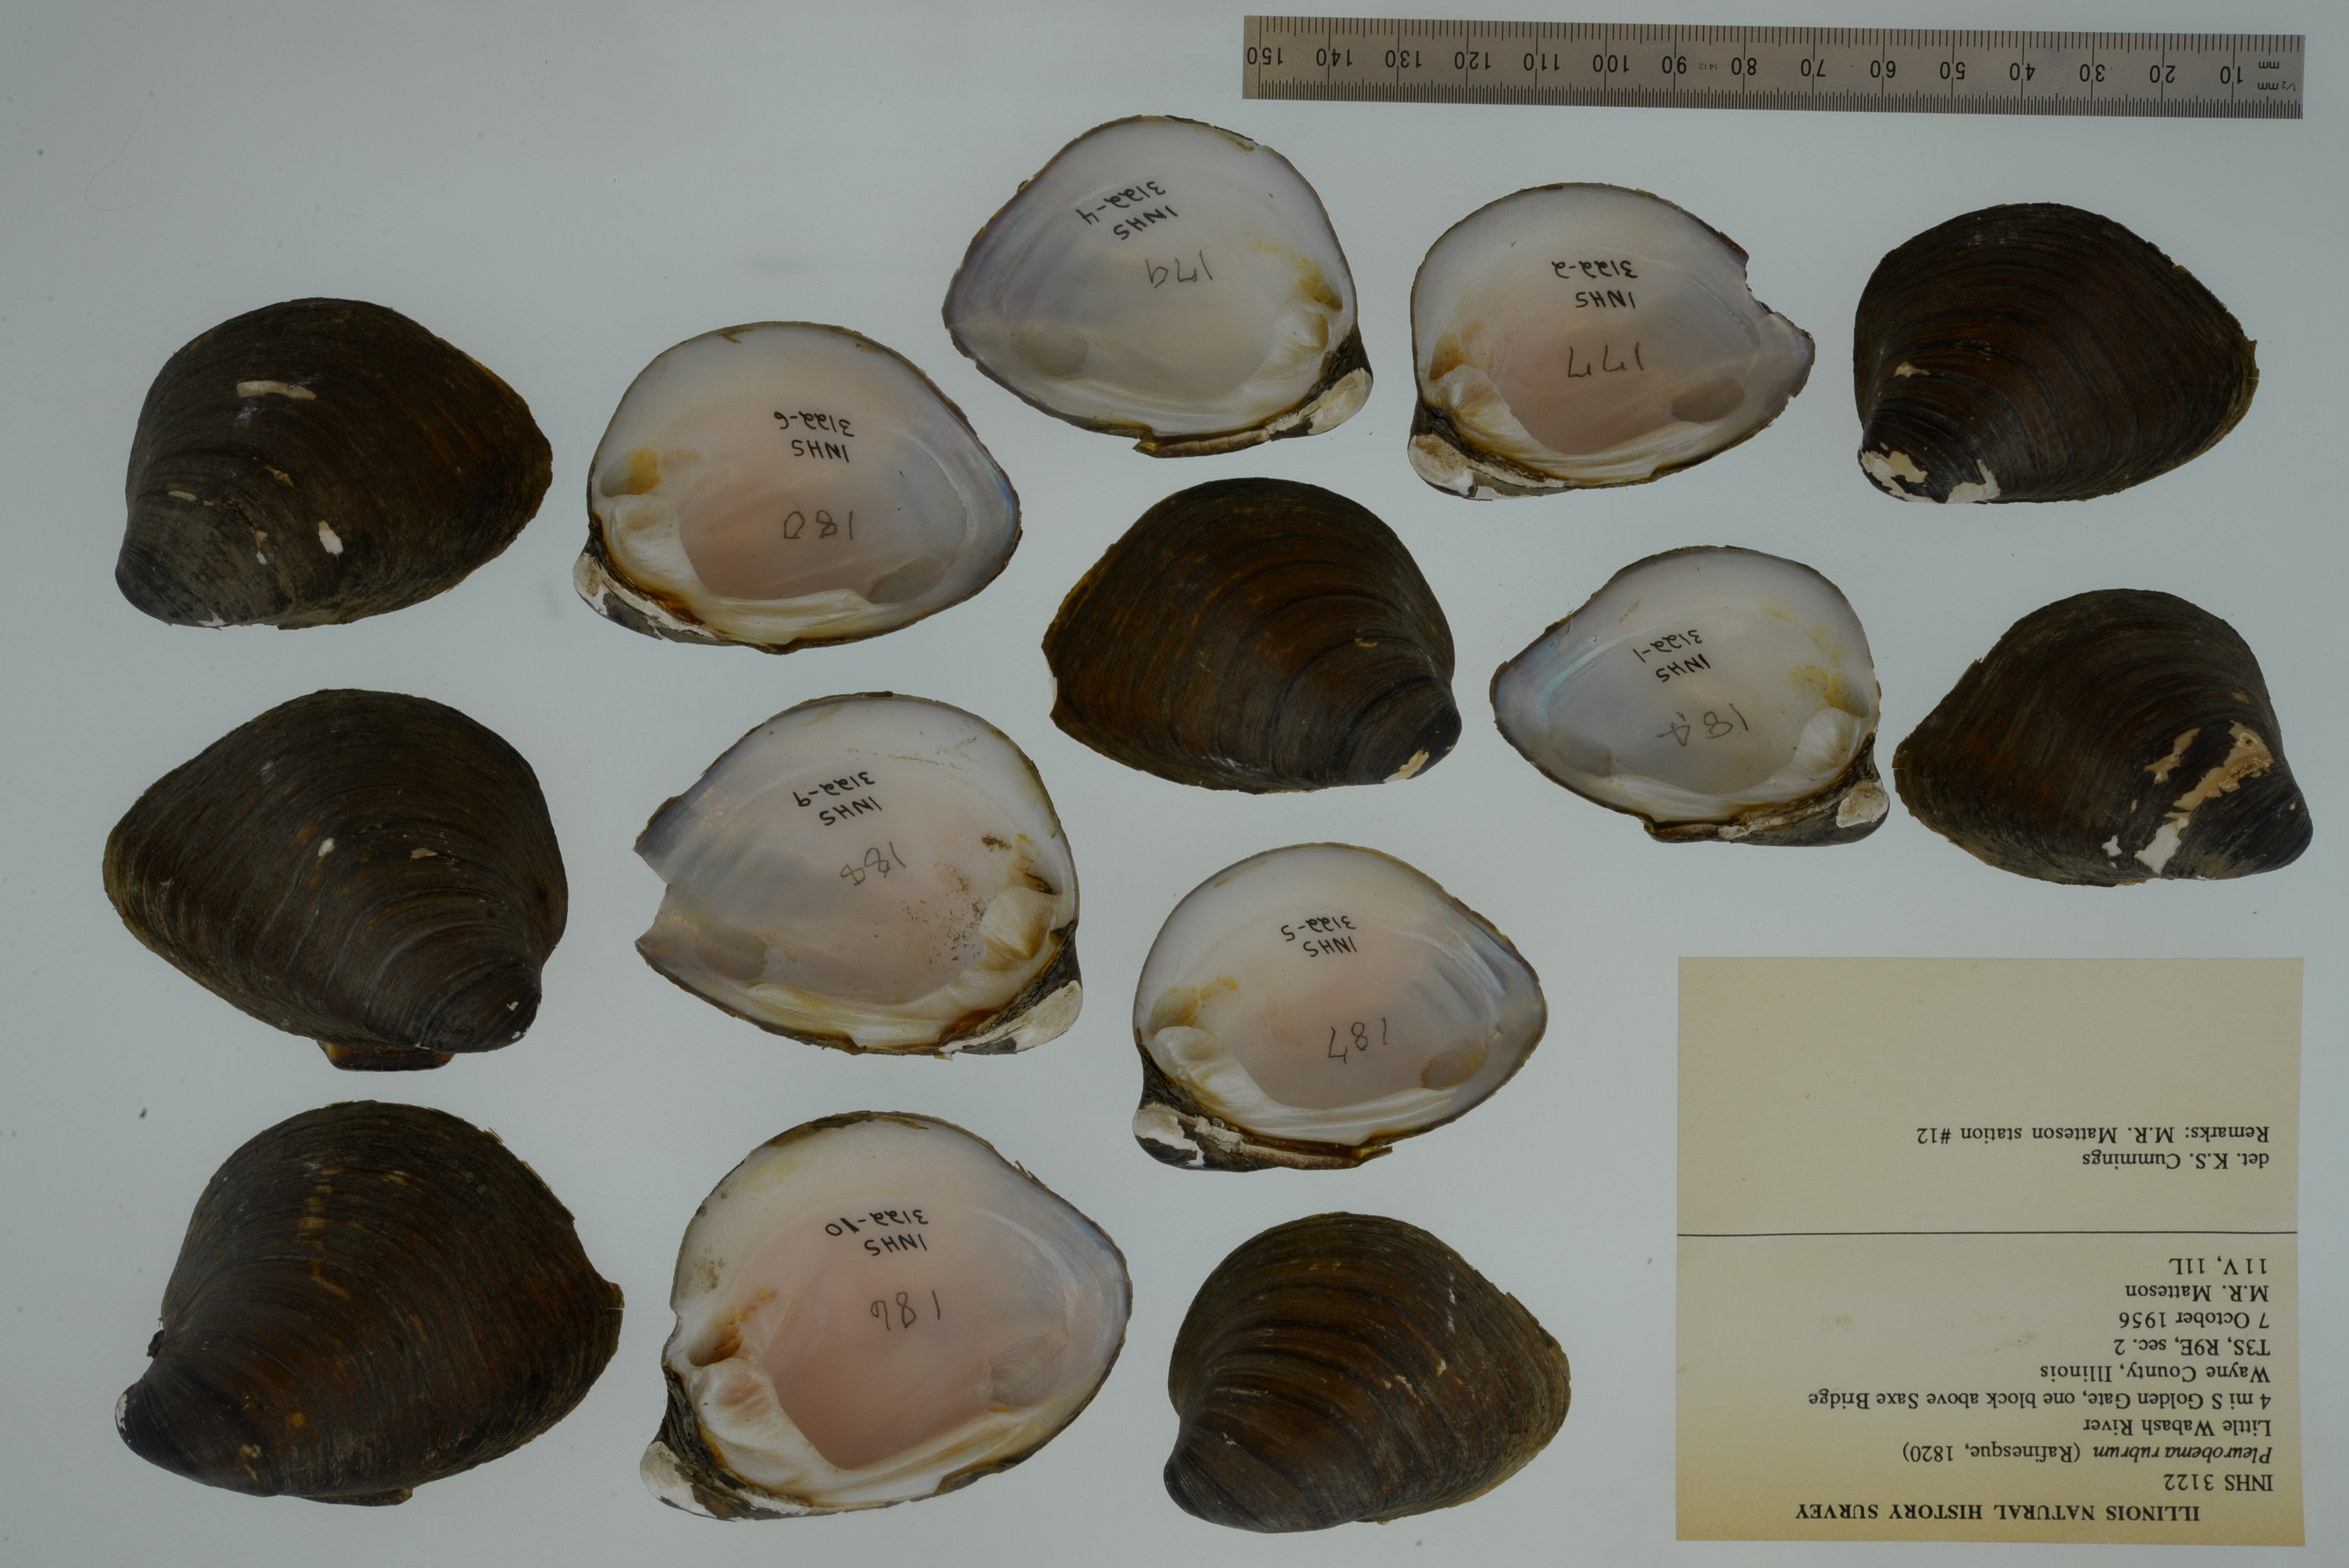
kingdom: Animalia
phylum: Mollusca
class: Bivalvia
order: Unionida
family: Unionidae
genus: Pleurobema
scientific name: Pleurobema rubrum
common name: Pyramid pigtoe
